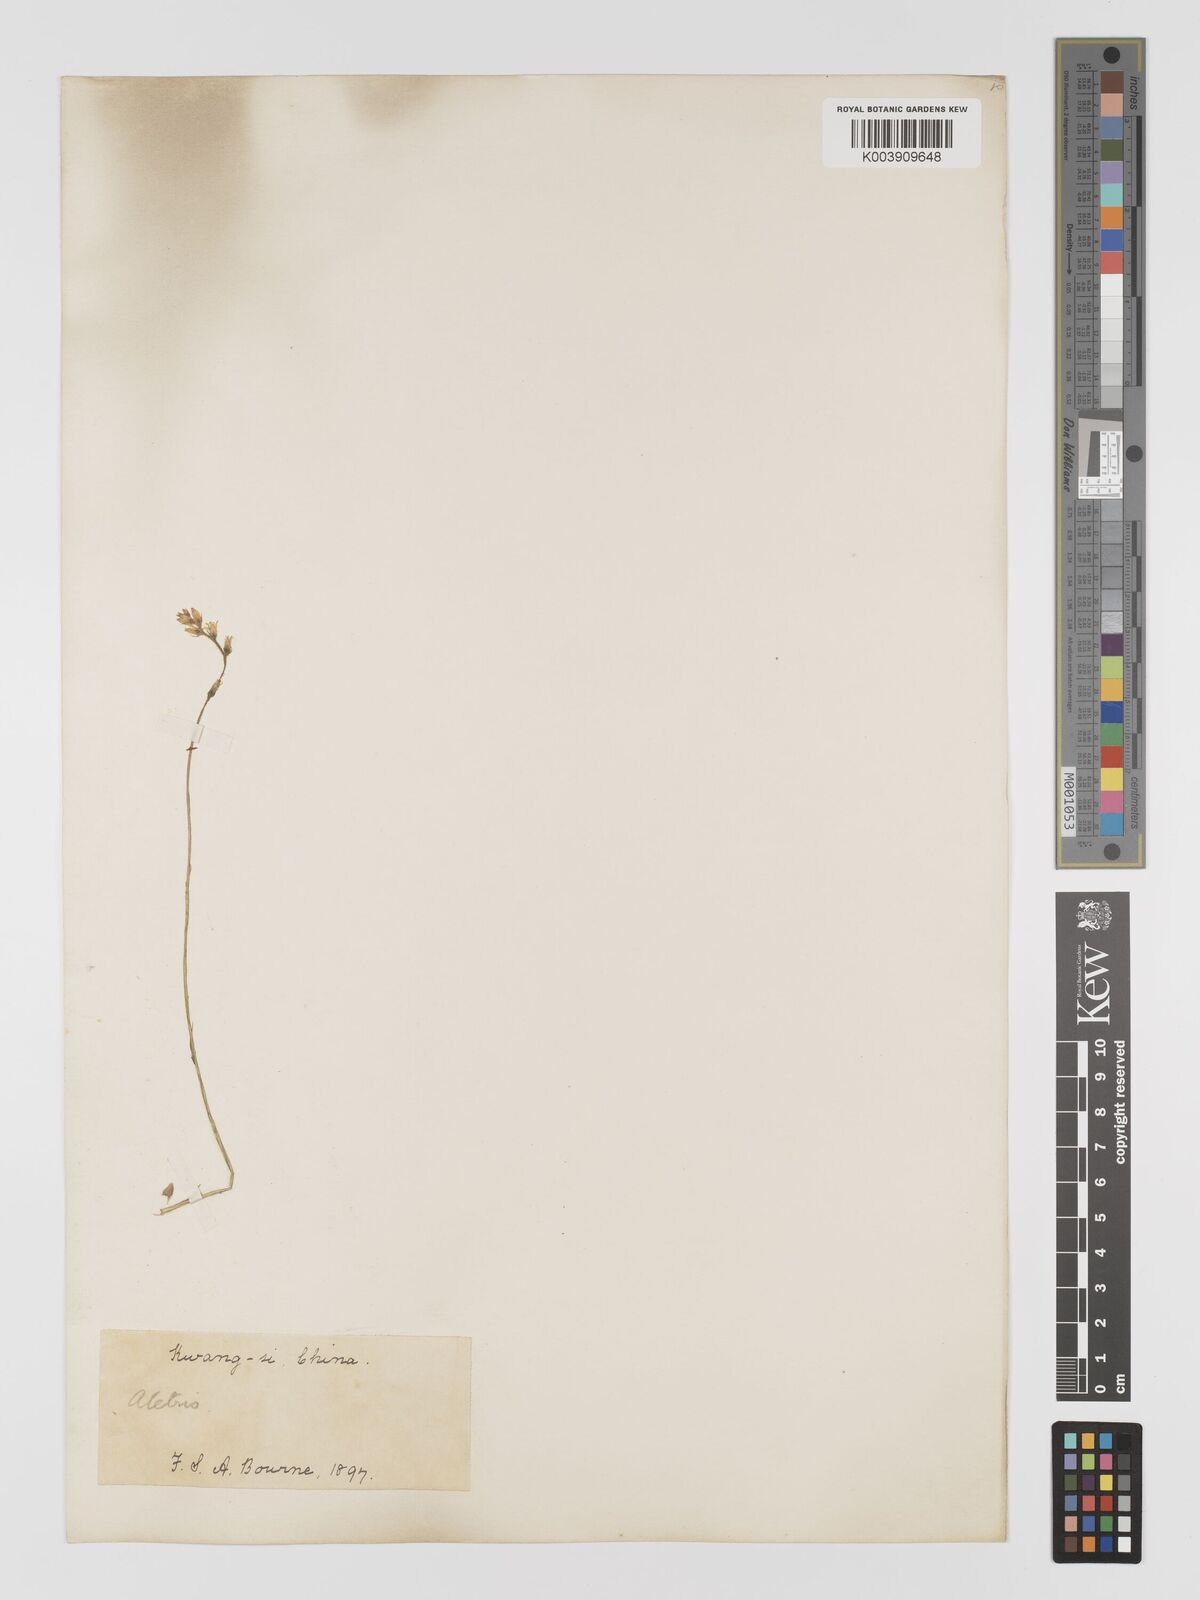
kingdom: Plantae
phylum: Tracheophyta
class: Liliopsida
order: Dioscoreales
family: Nartheciaceae
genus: Aletris
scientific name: Aletris spicata
